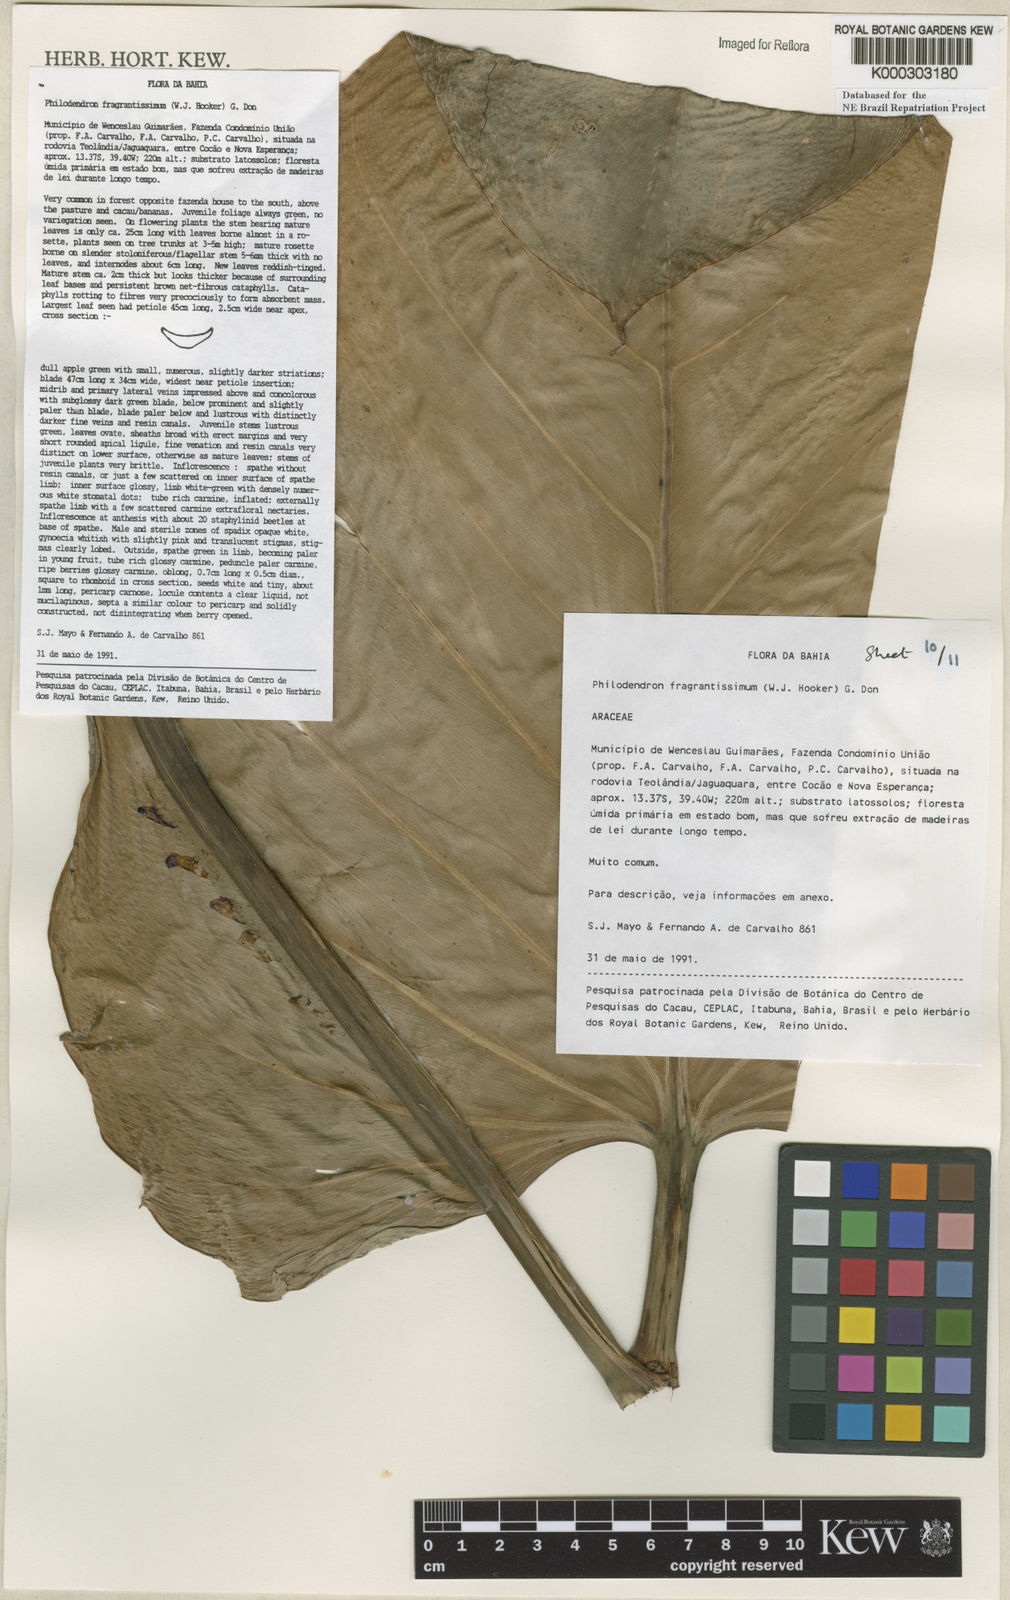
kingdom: Plantae
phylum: Tracheophyta
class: Liliopsida
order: Alismatales
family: Araceae
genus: Philodendron
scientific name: Philodendron fragrantissimum
